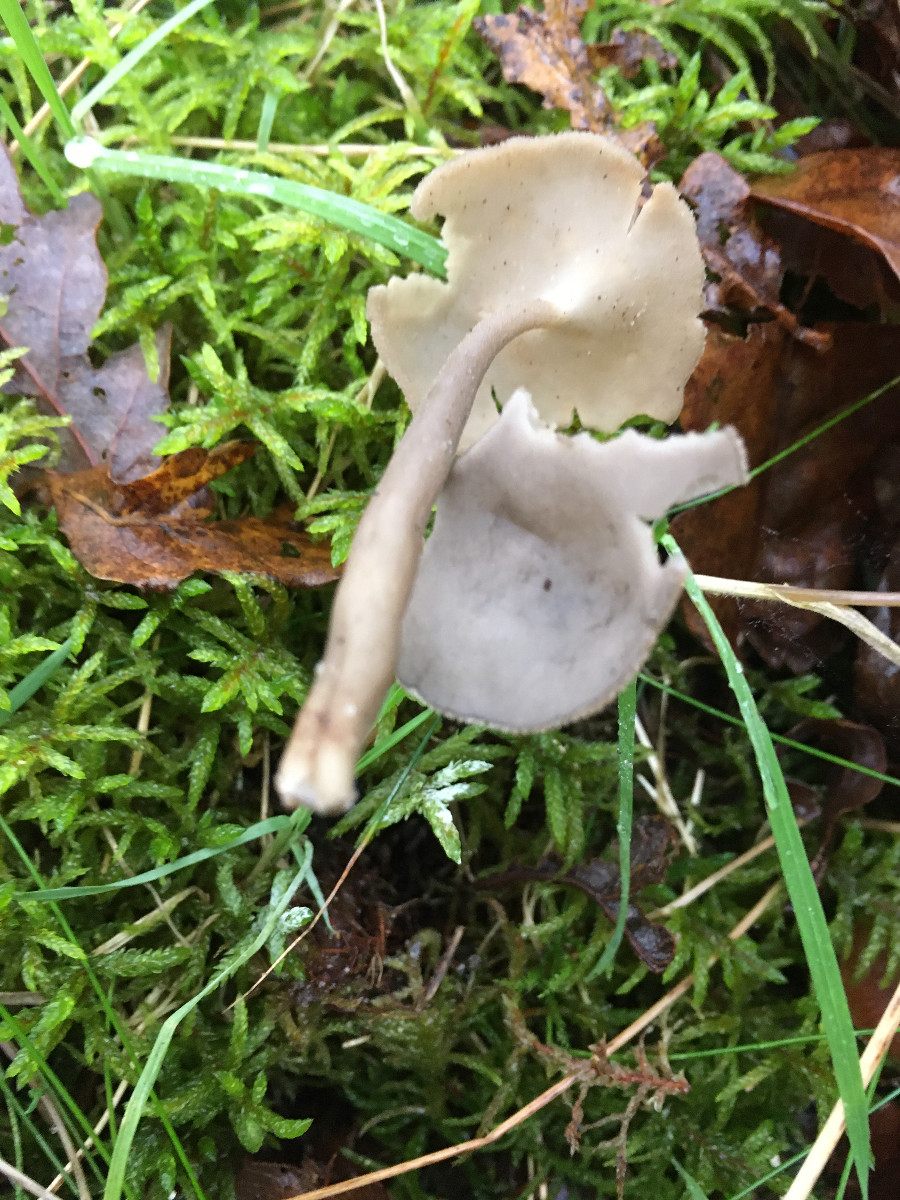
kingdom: Fungi
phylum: Ascomycota
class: Pezizomycetes
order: Pezizales
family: Helvellaceae
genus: Helvella
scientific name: Helvella
